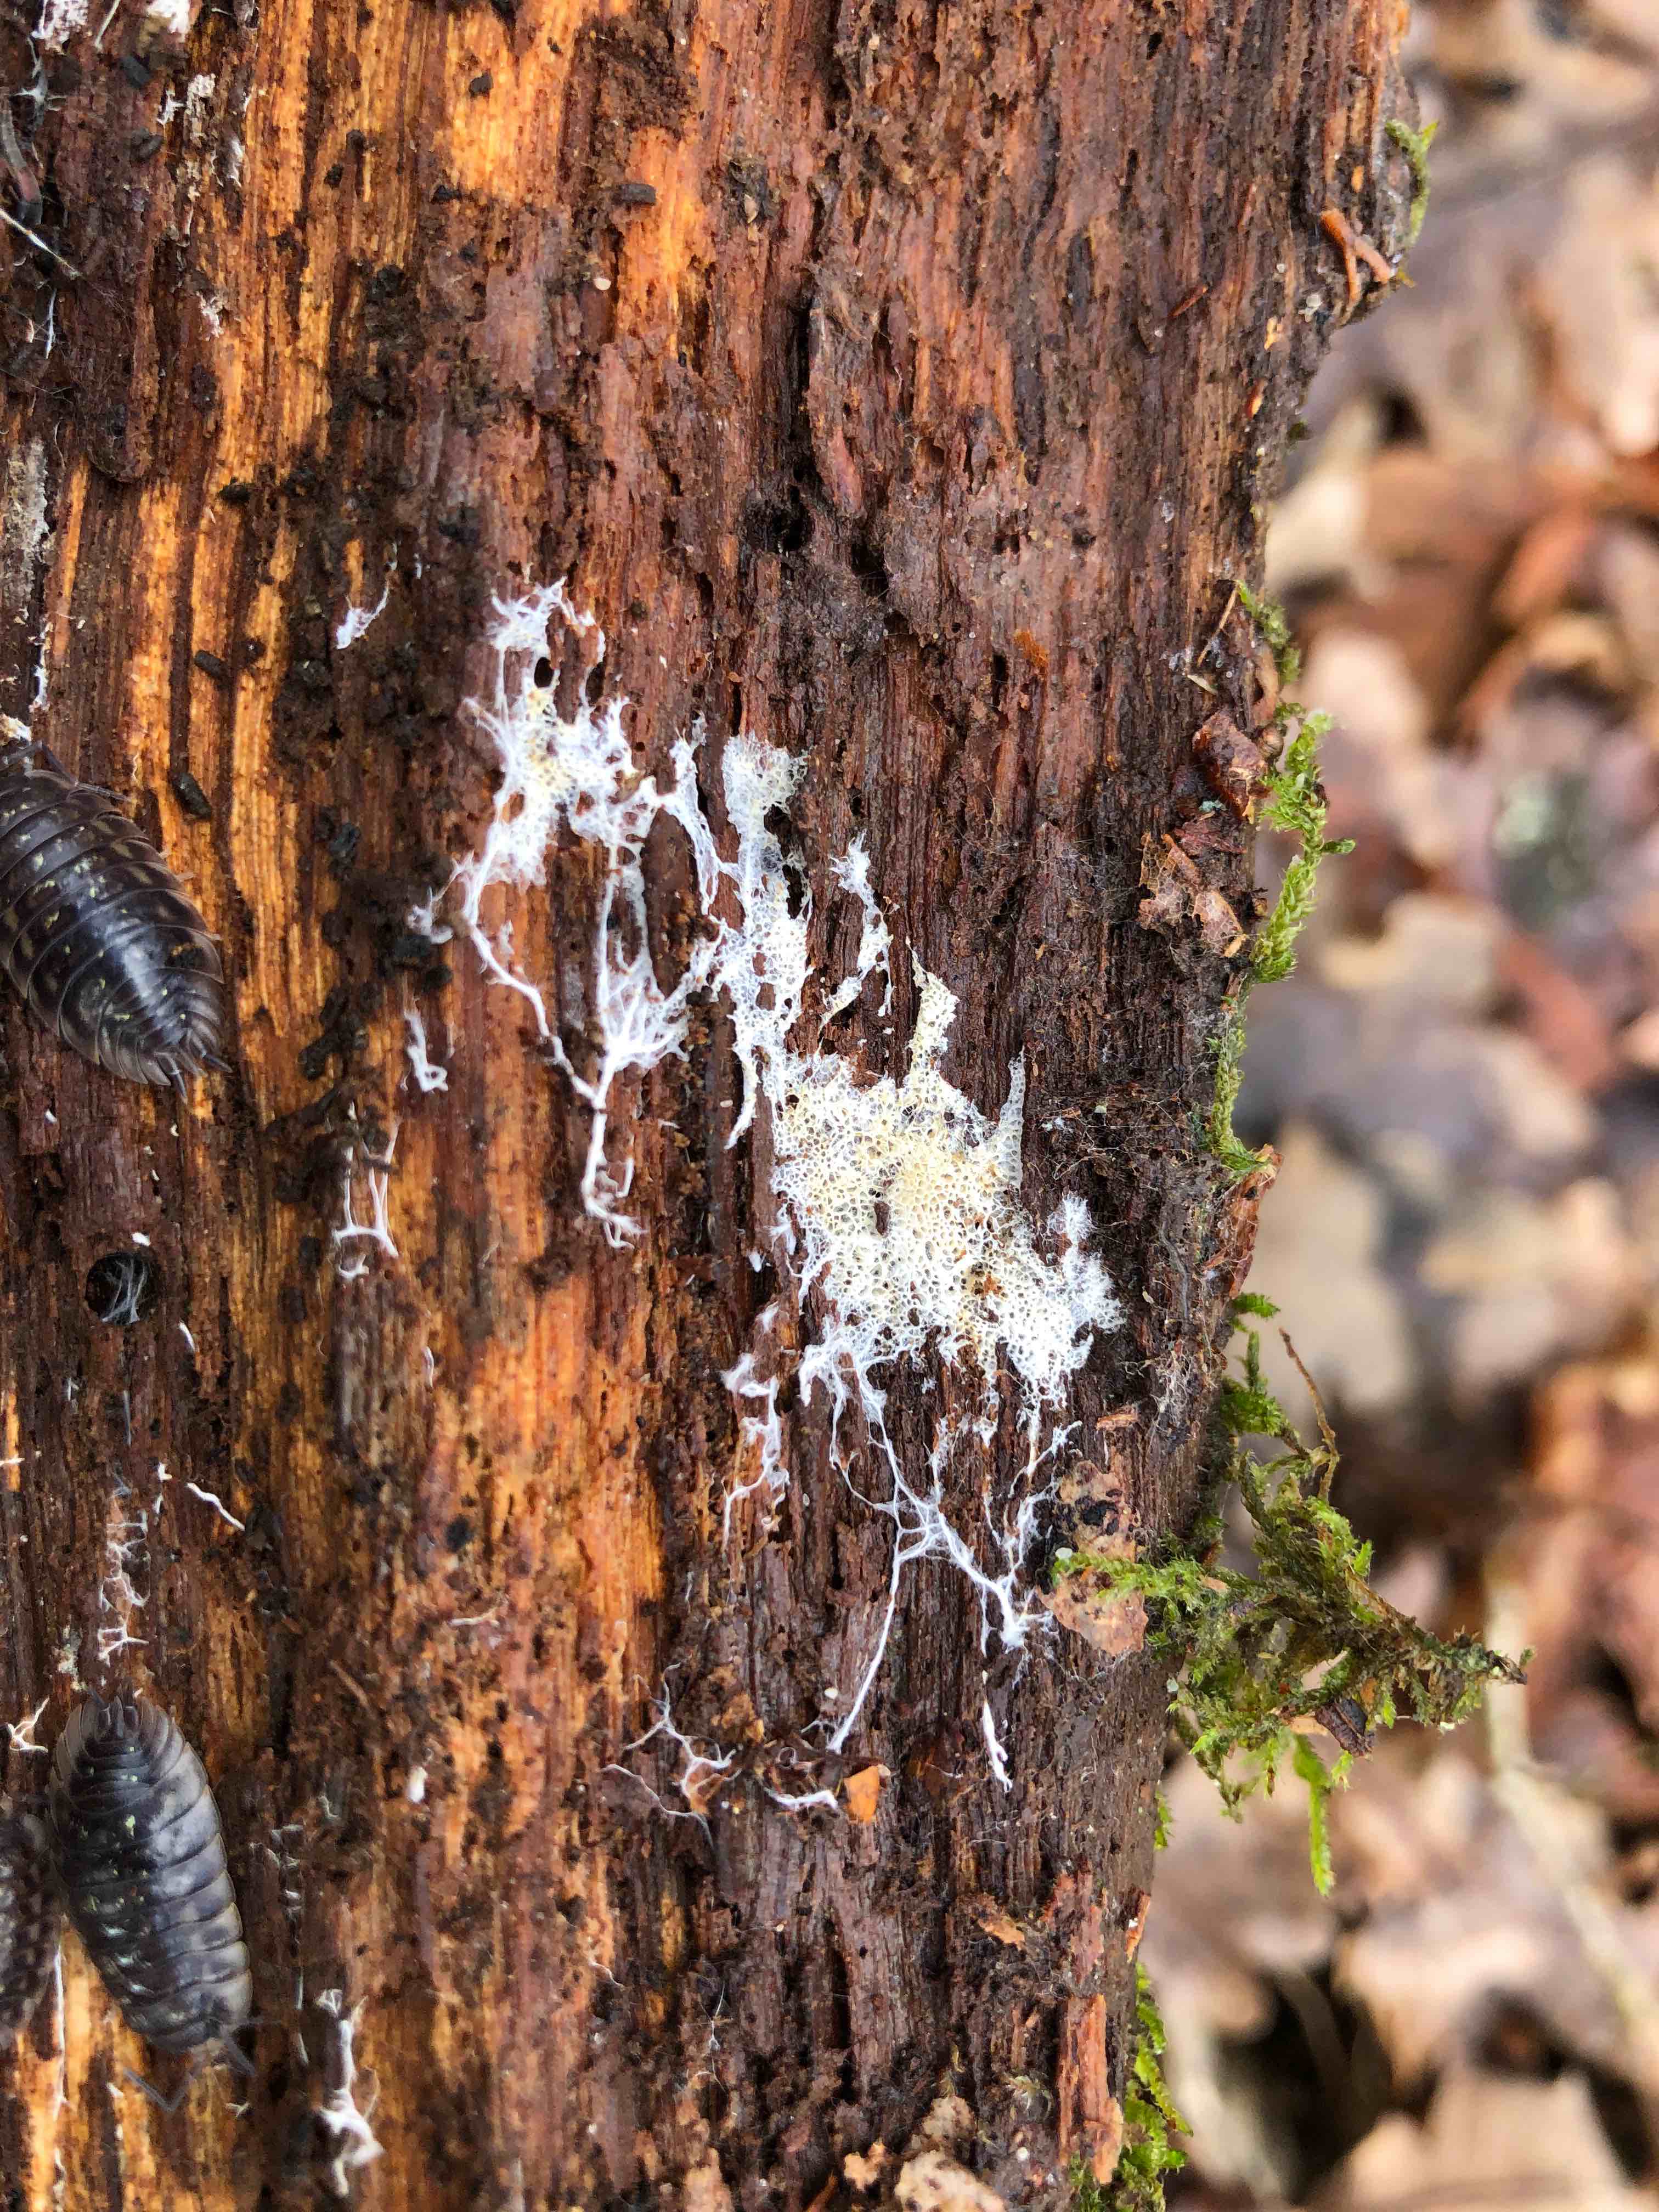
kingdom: Fungi
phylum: Basidiomycota
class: Agaricomycetes
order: Trechisporales
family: Sistotremataceae
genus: Trechispora
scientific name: Trechispora hymenocystis
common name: poret vathinde
